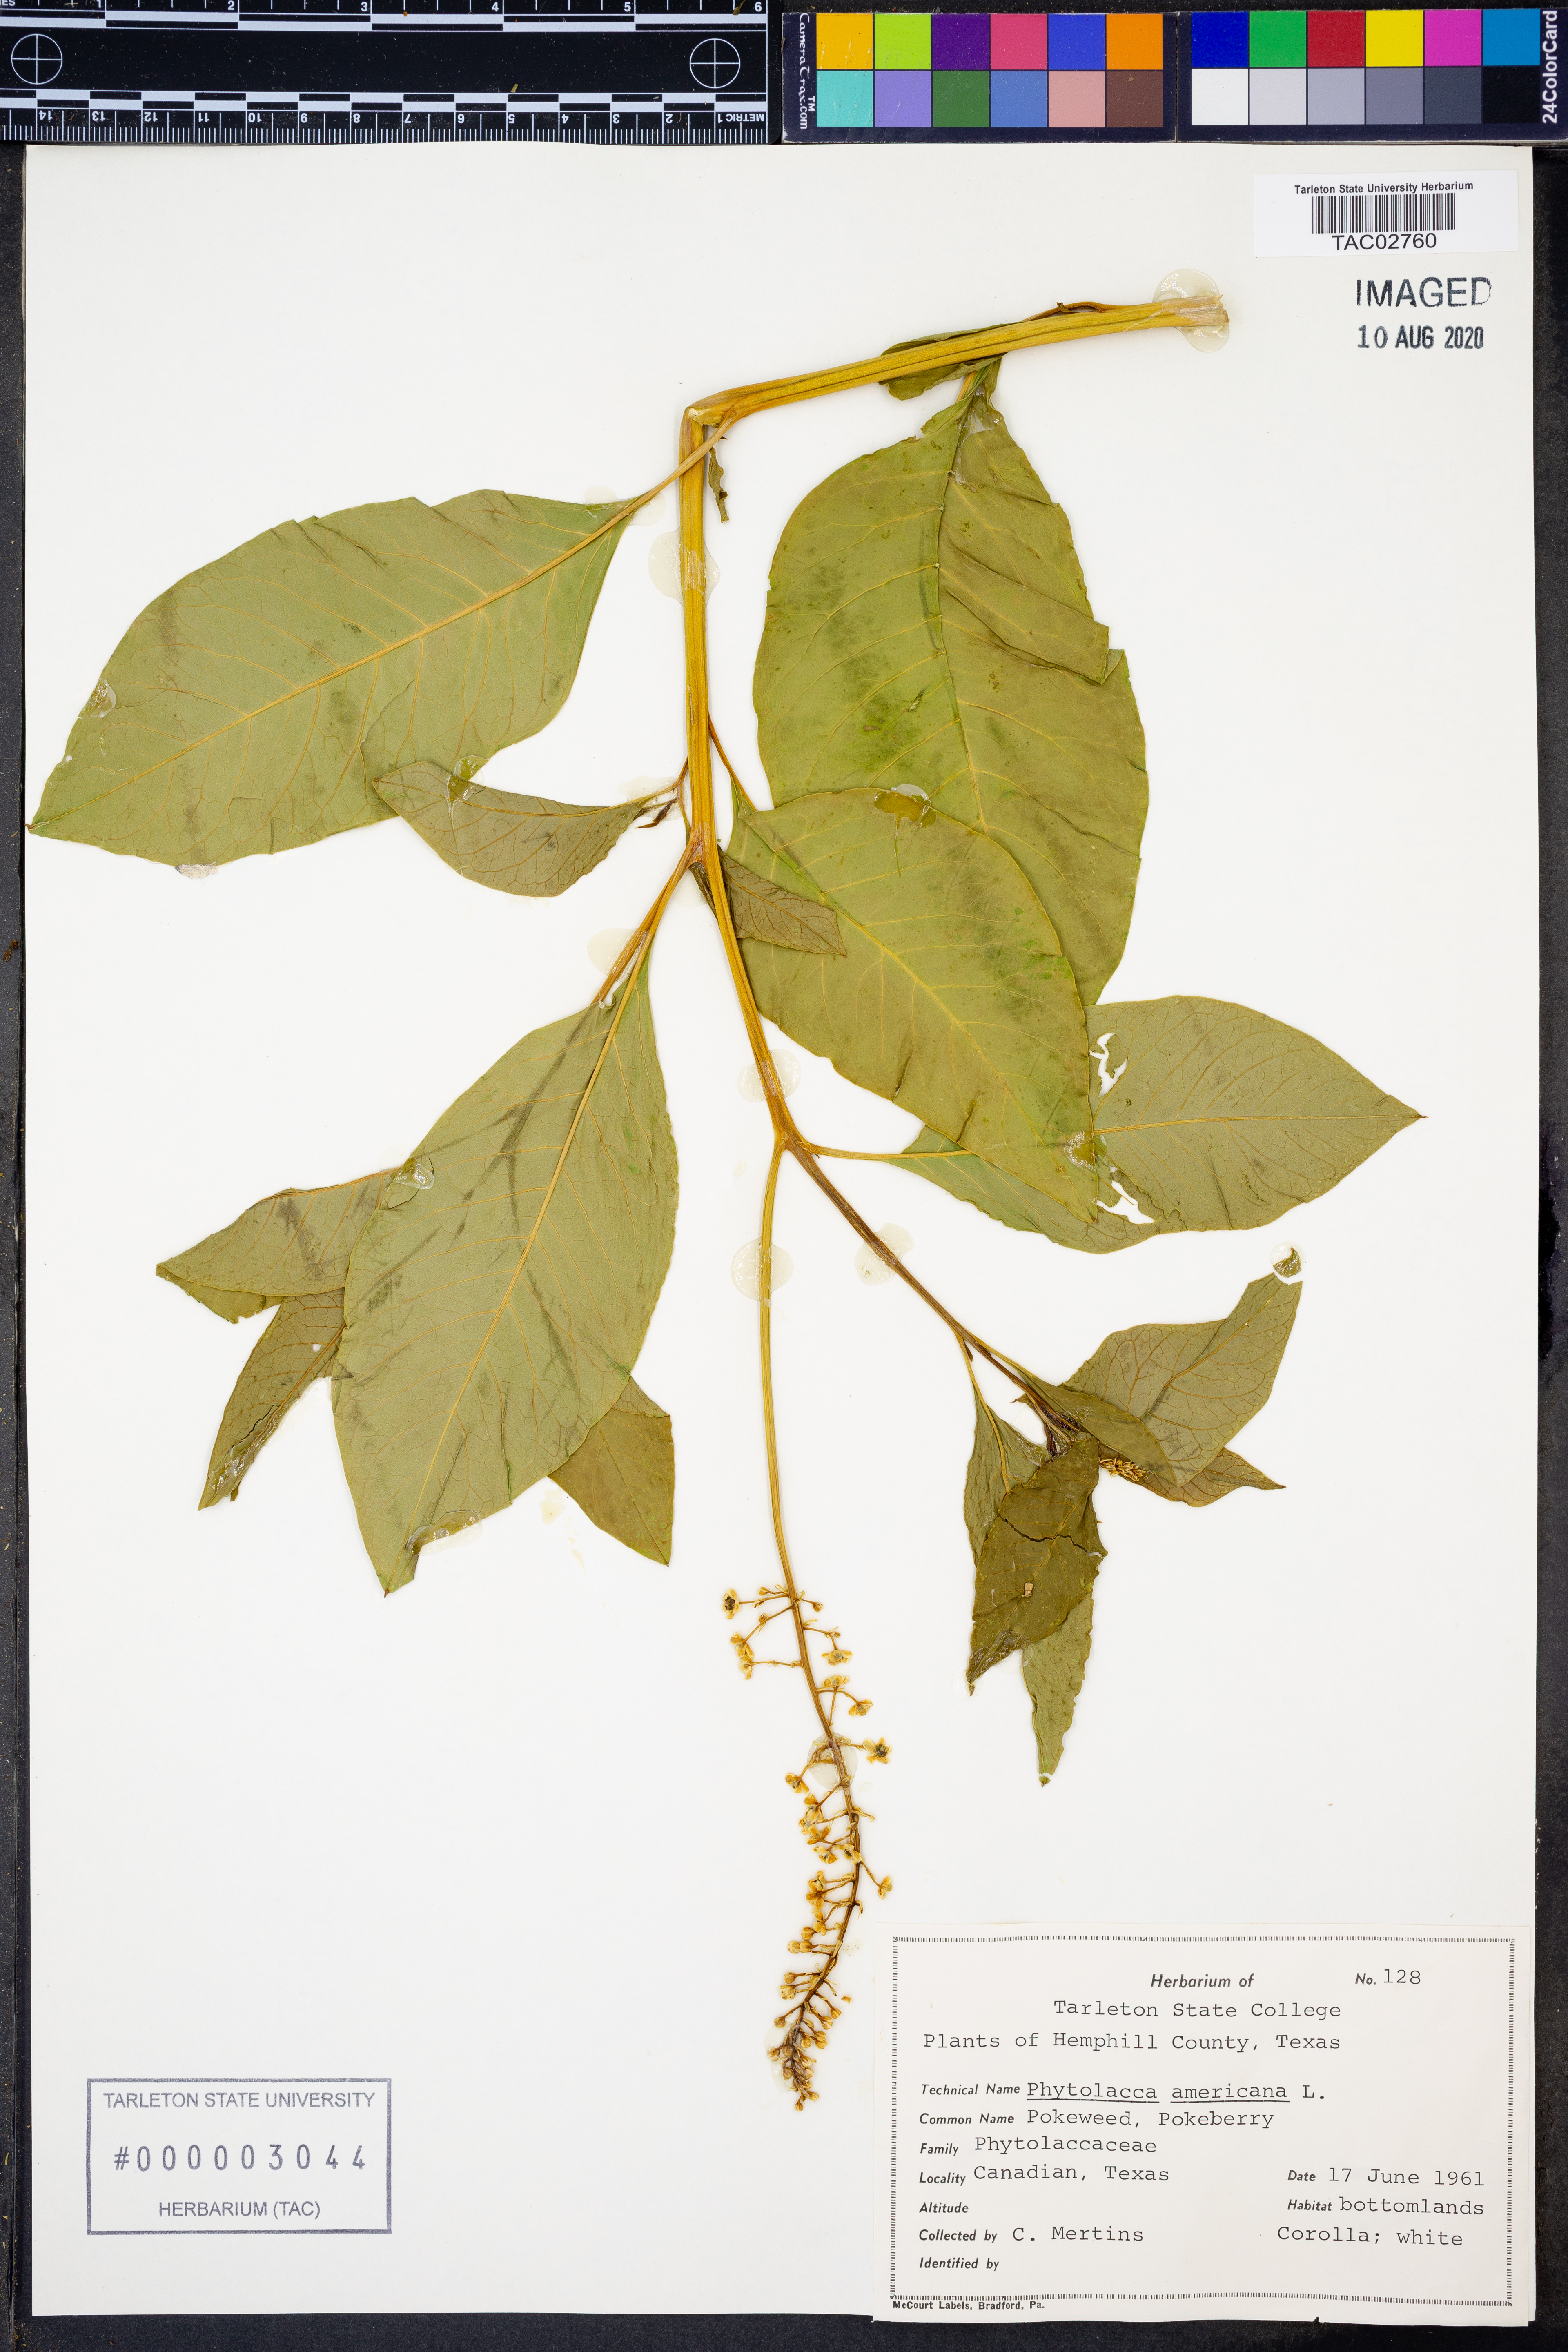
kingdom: Plantae
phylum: Tracheophyta
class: Magnoliopsida
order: Caryophyllales
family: Phytolaccaceae
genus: Phytolacca
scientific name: Phytolacca americana
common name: American pokeweed
